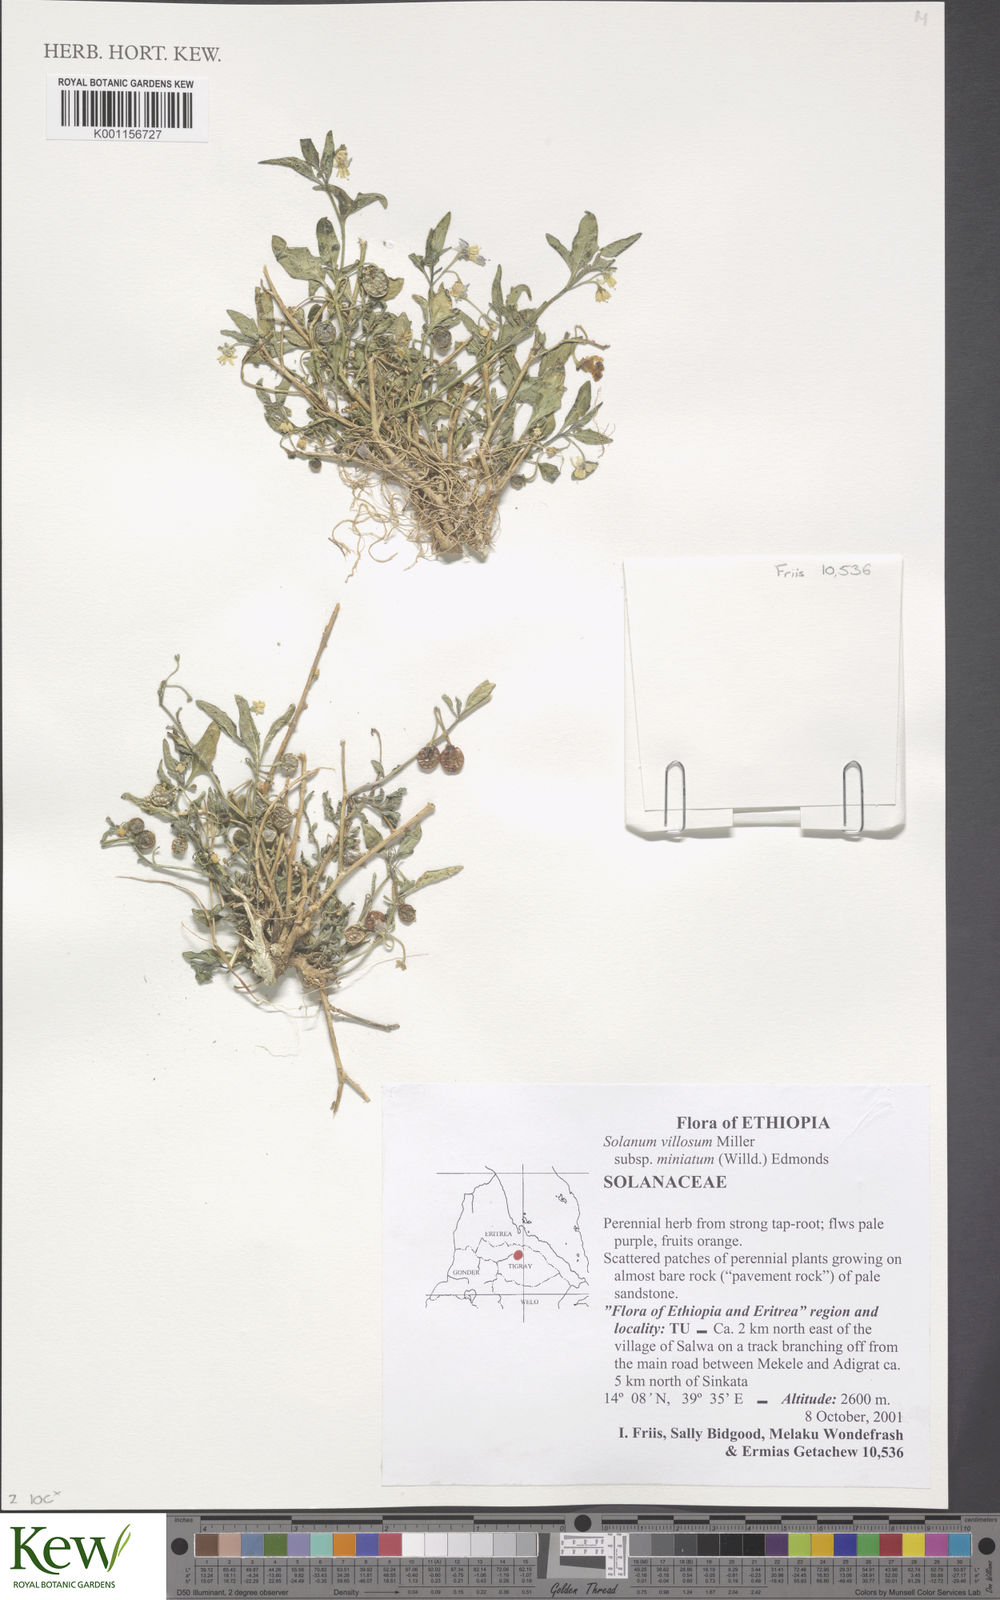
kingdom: Plantae
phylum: Tracheophyta
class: Magnoliopsida
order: Solanales
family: Solanaceae
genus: Solanum
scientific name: Solanum villosum
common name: Red nightshade
